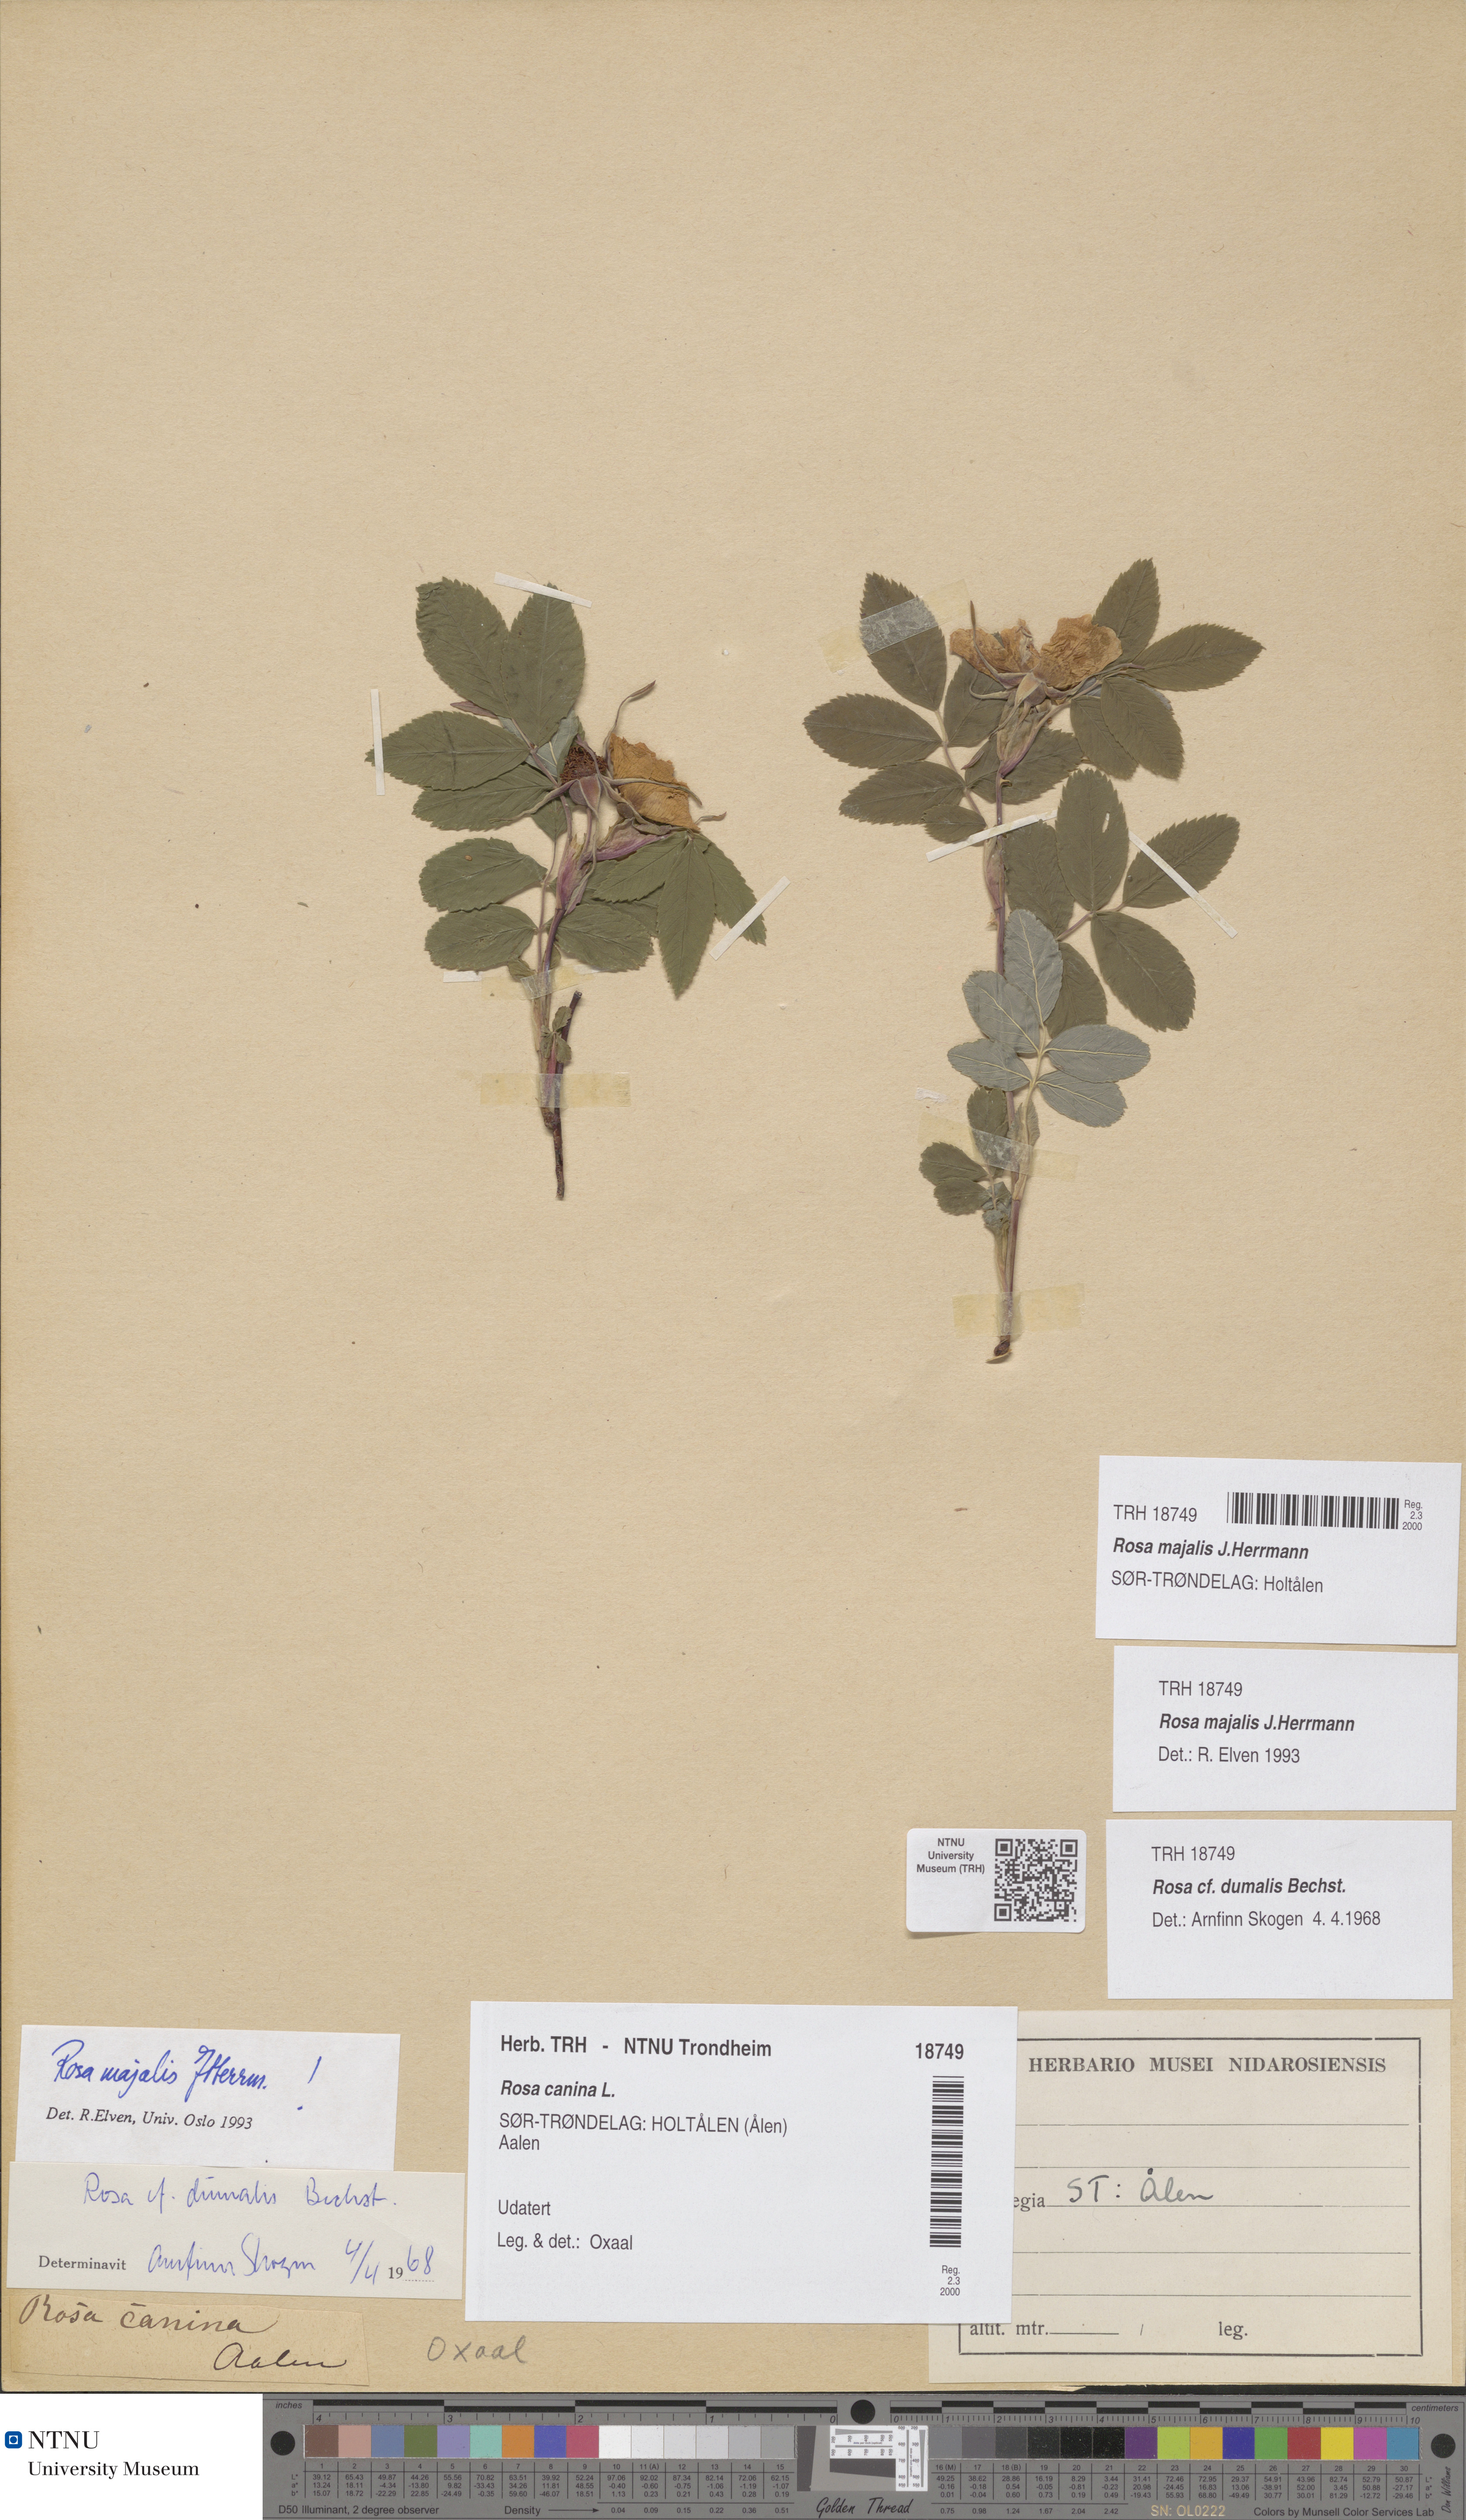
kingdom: Plantae
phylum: Tracheophyta
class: Magnoliopsida
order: Rosales
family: Rosaceae
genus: Rosa
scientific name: Rosa majalis
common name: Cinnamon rose
